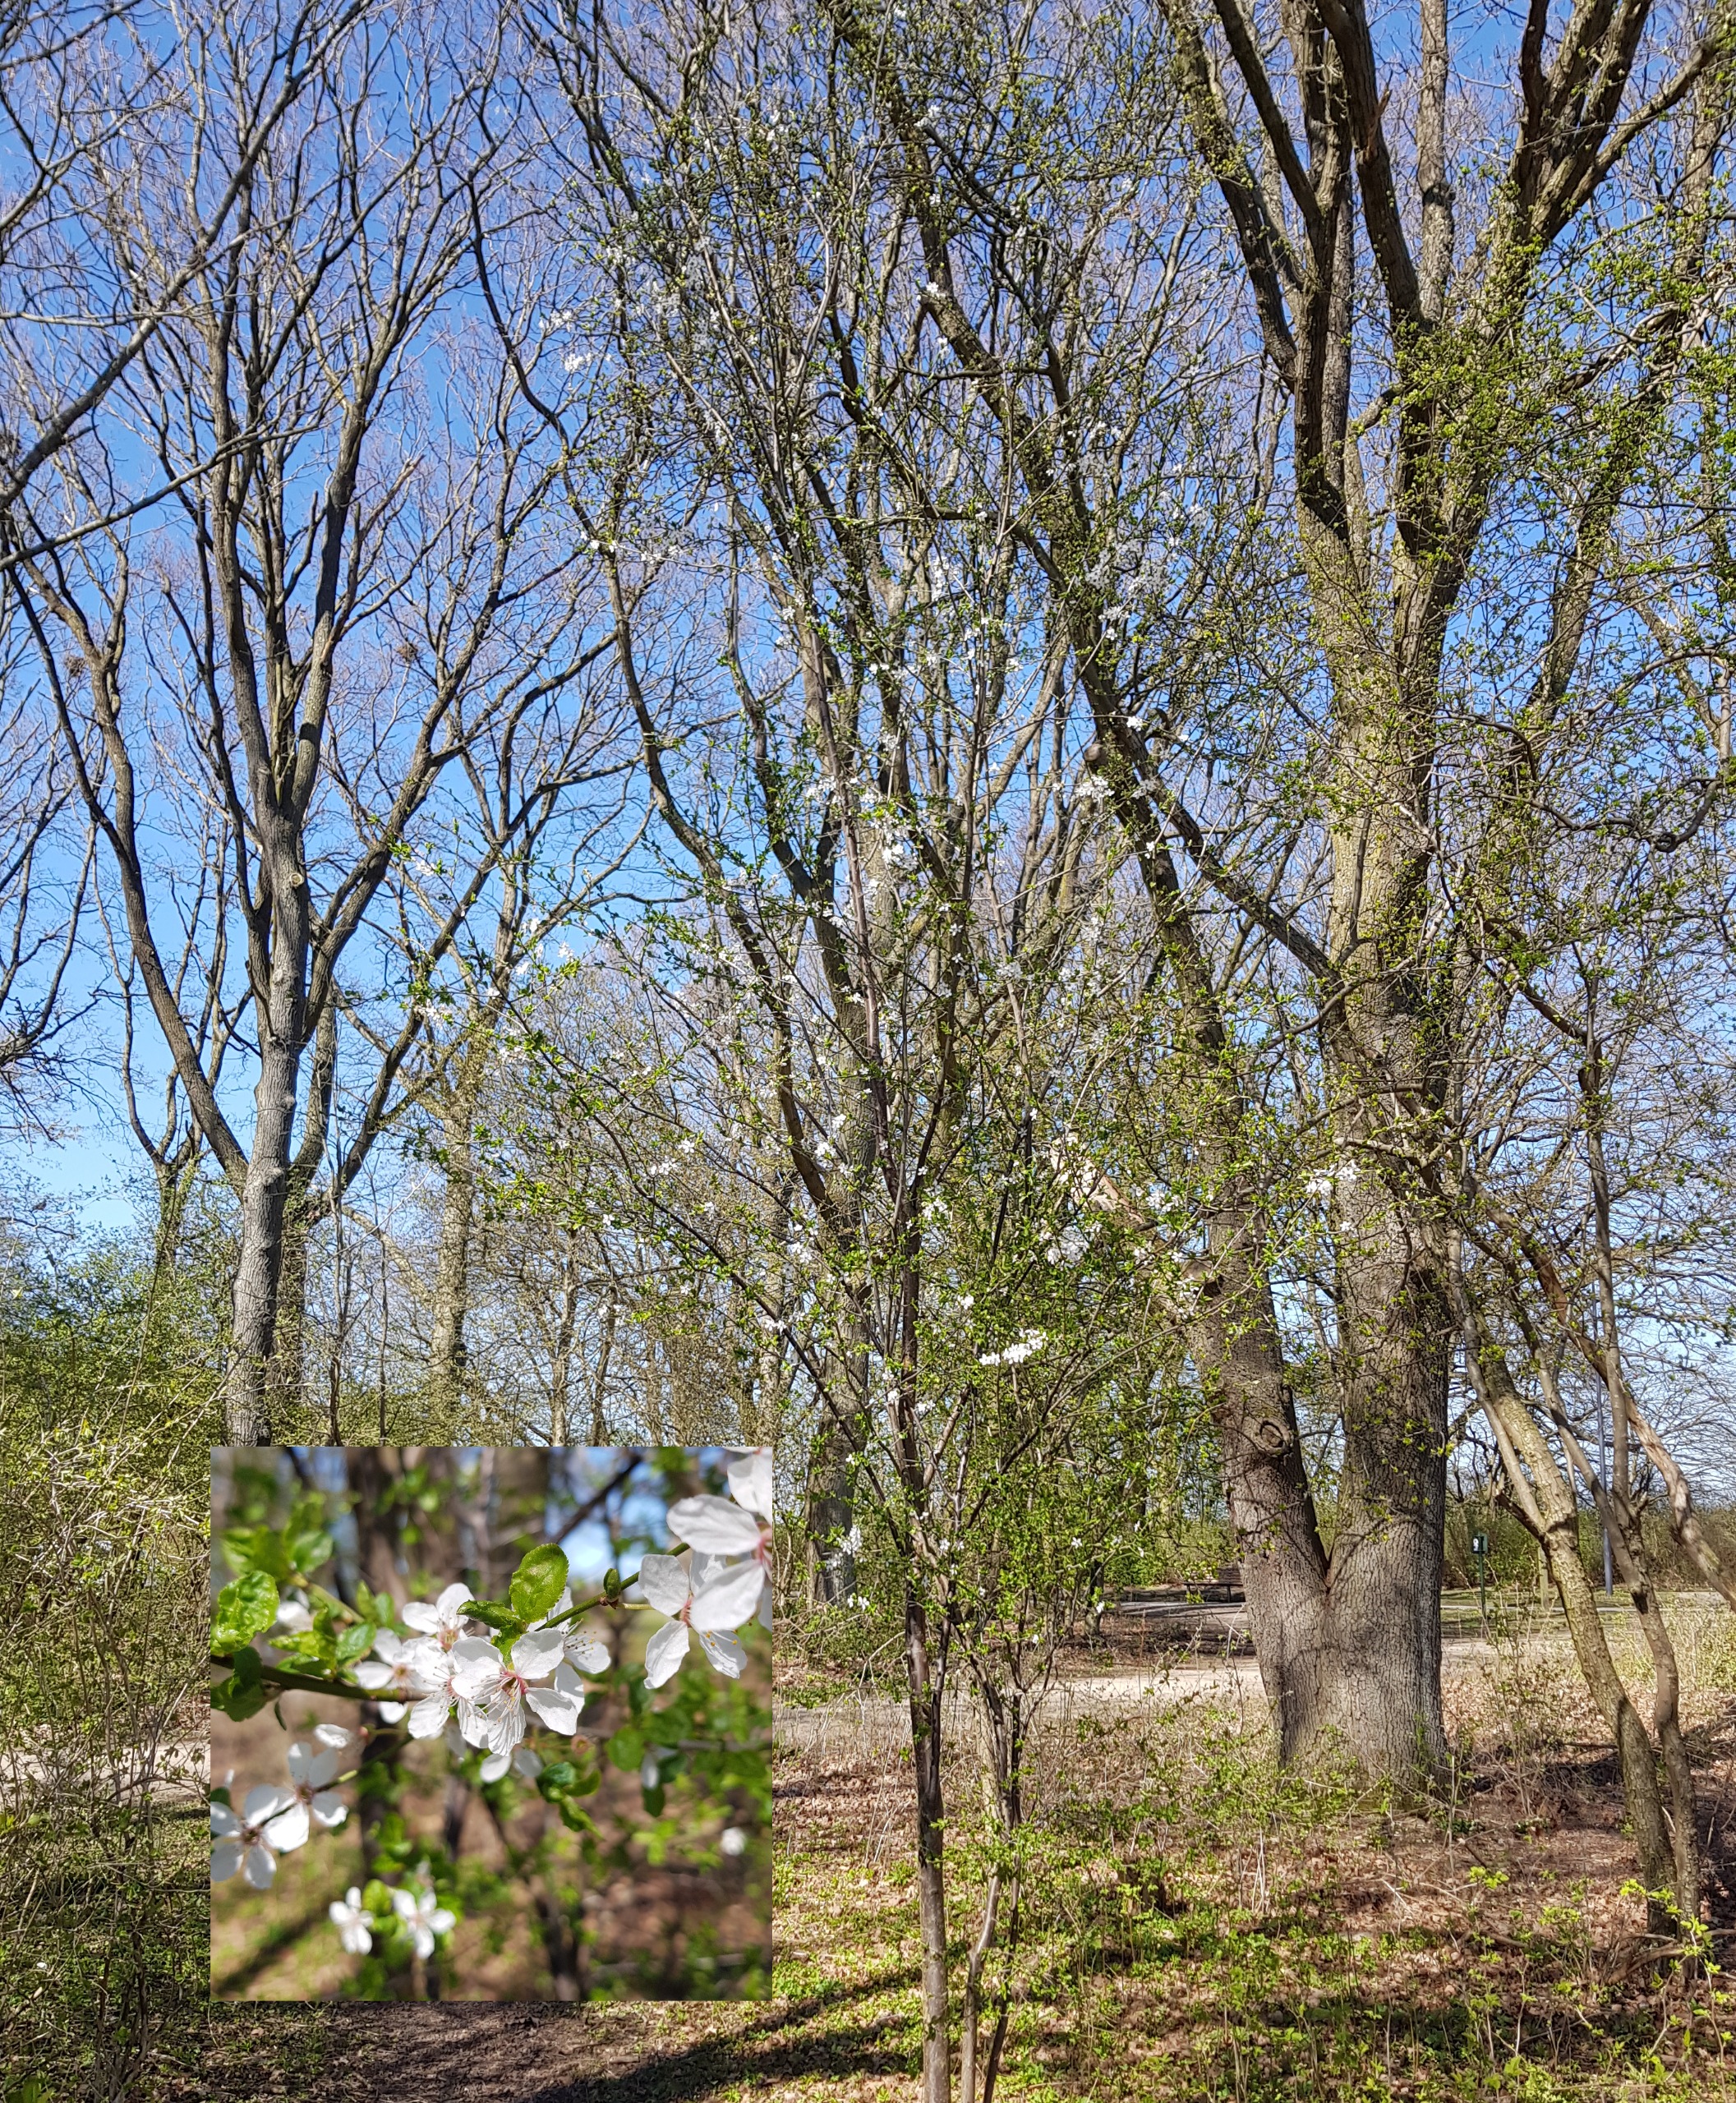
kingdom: Plantae
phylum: Tracheophyta
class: Magnoliopsida
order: Rosales
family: Rosaceae
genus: Prunus
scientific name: Prunus cerasifera
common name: Mirabel
